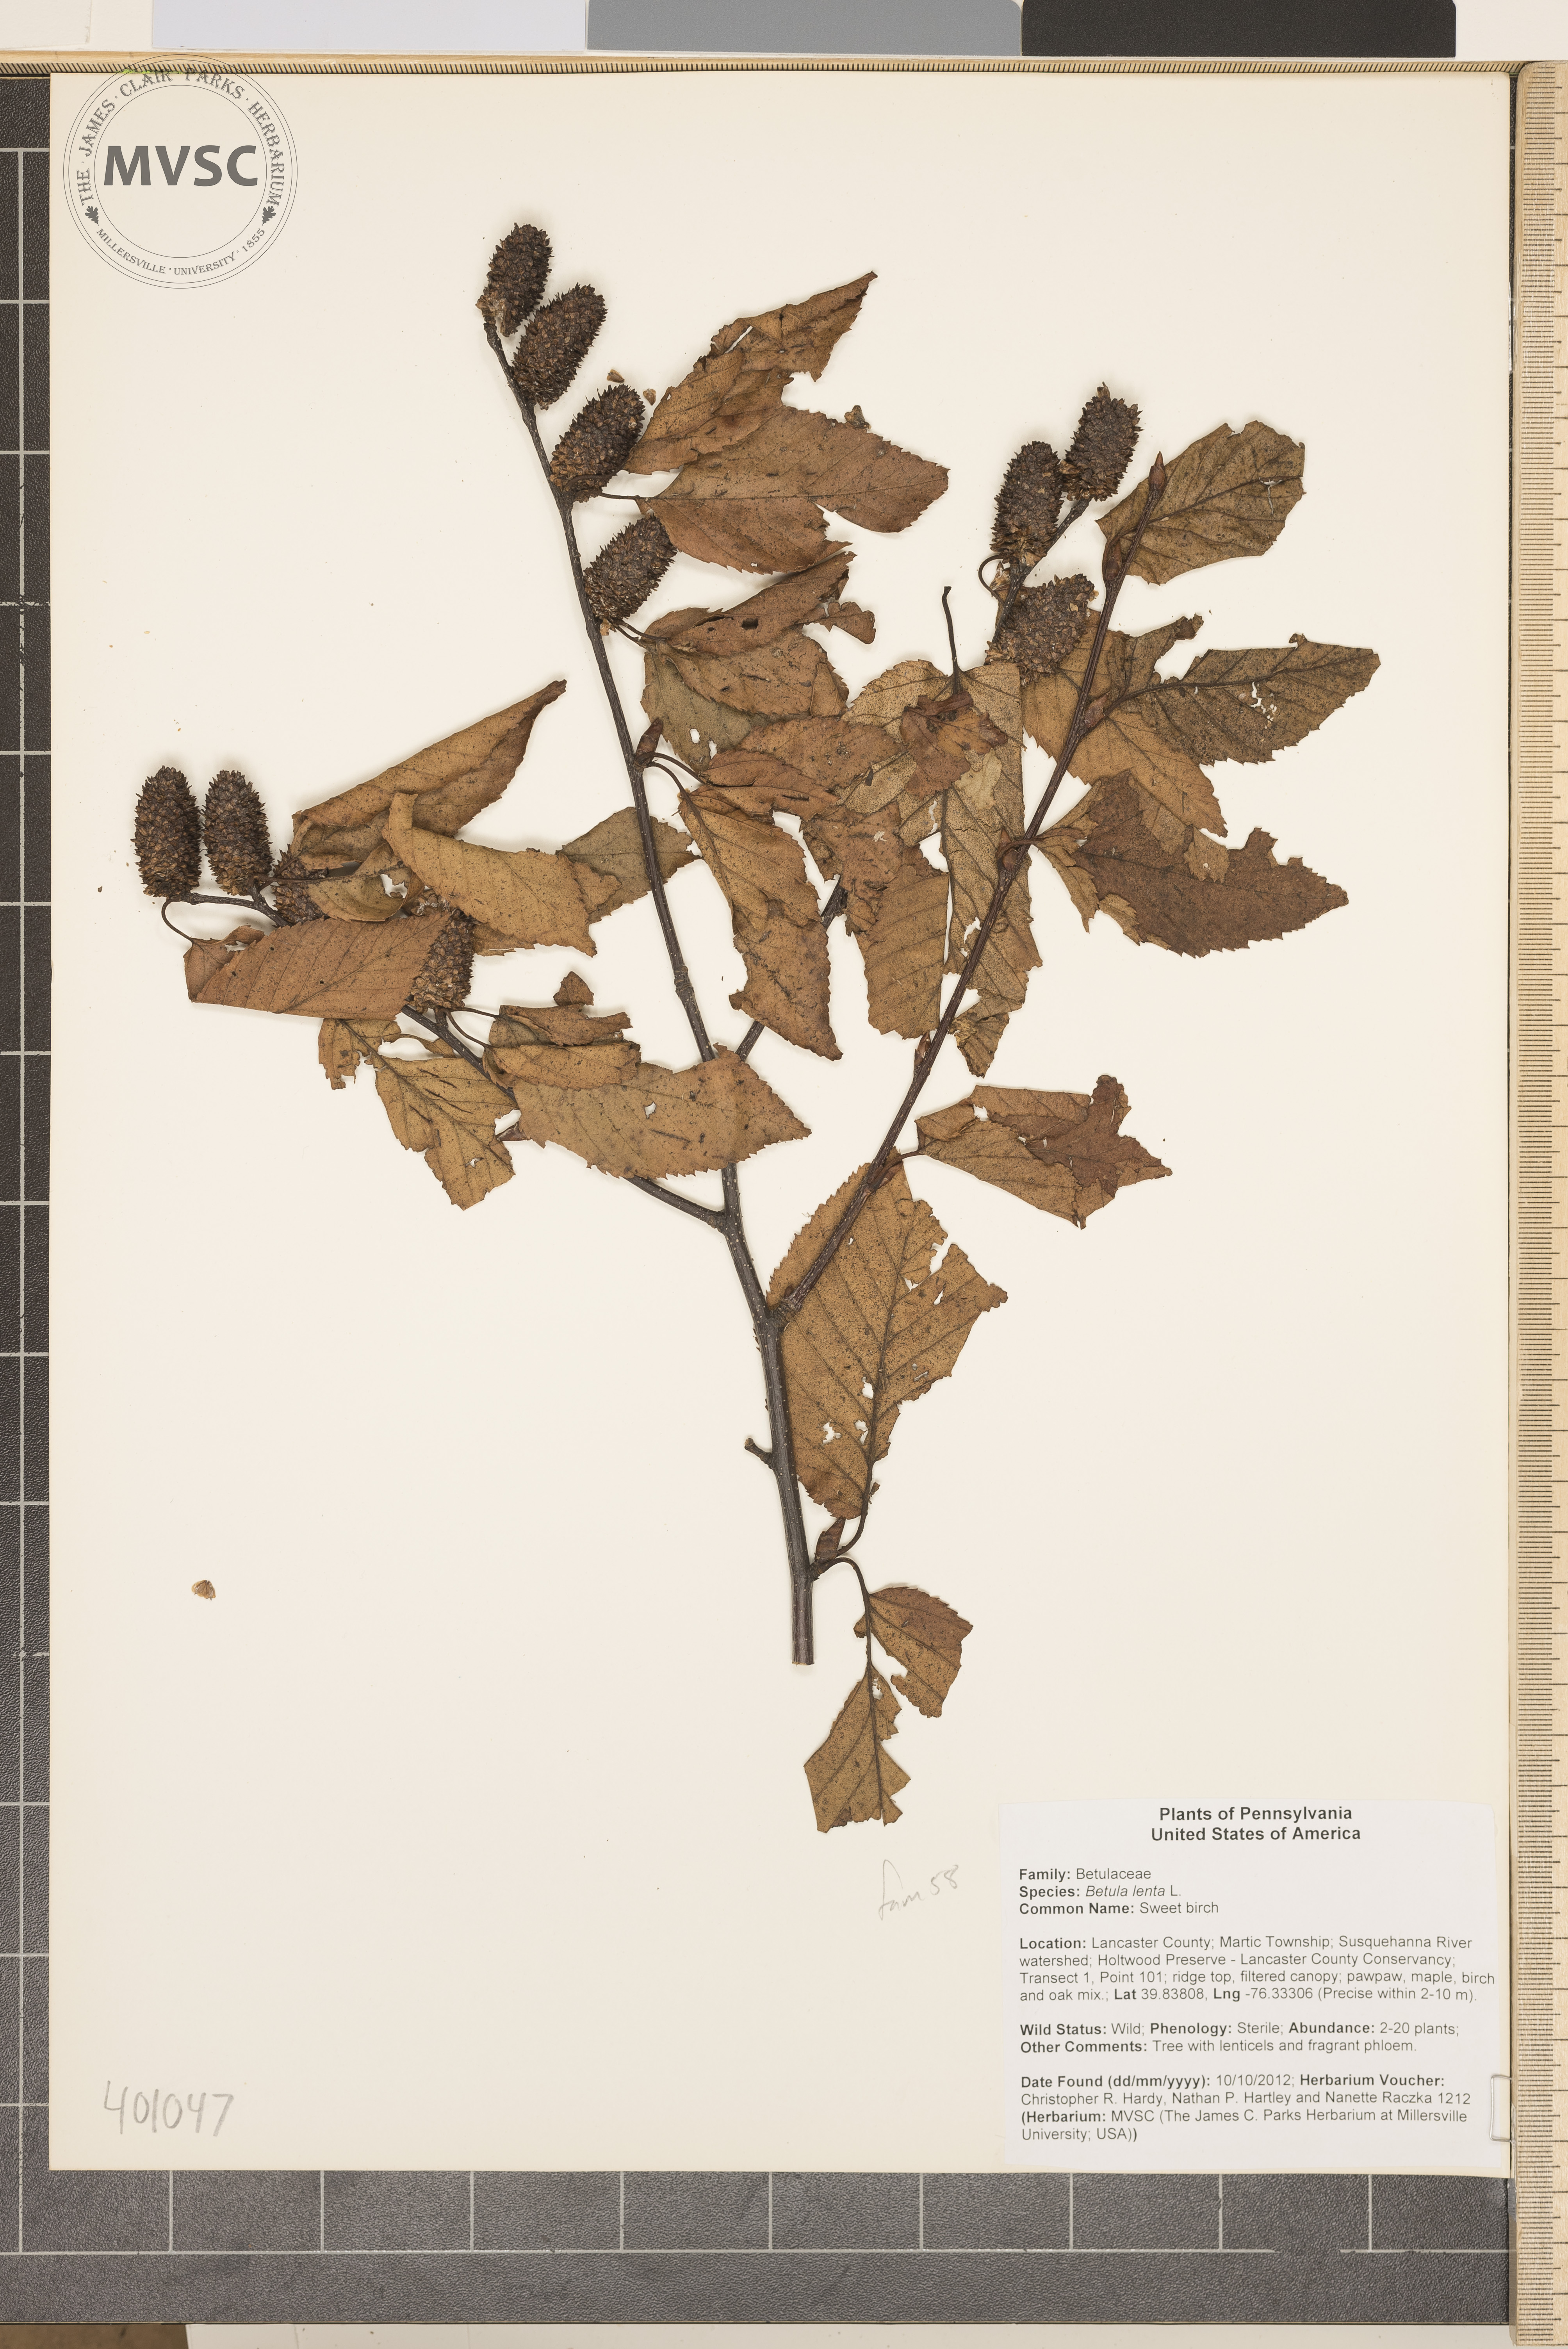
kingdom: Plantae
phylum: Tracheophyta
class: Magnoliopsida
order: Fagales
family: Betulaceae
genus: Betula
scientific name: Betula lenta
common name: Sweet birch
